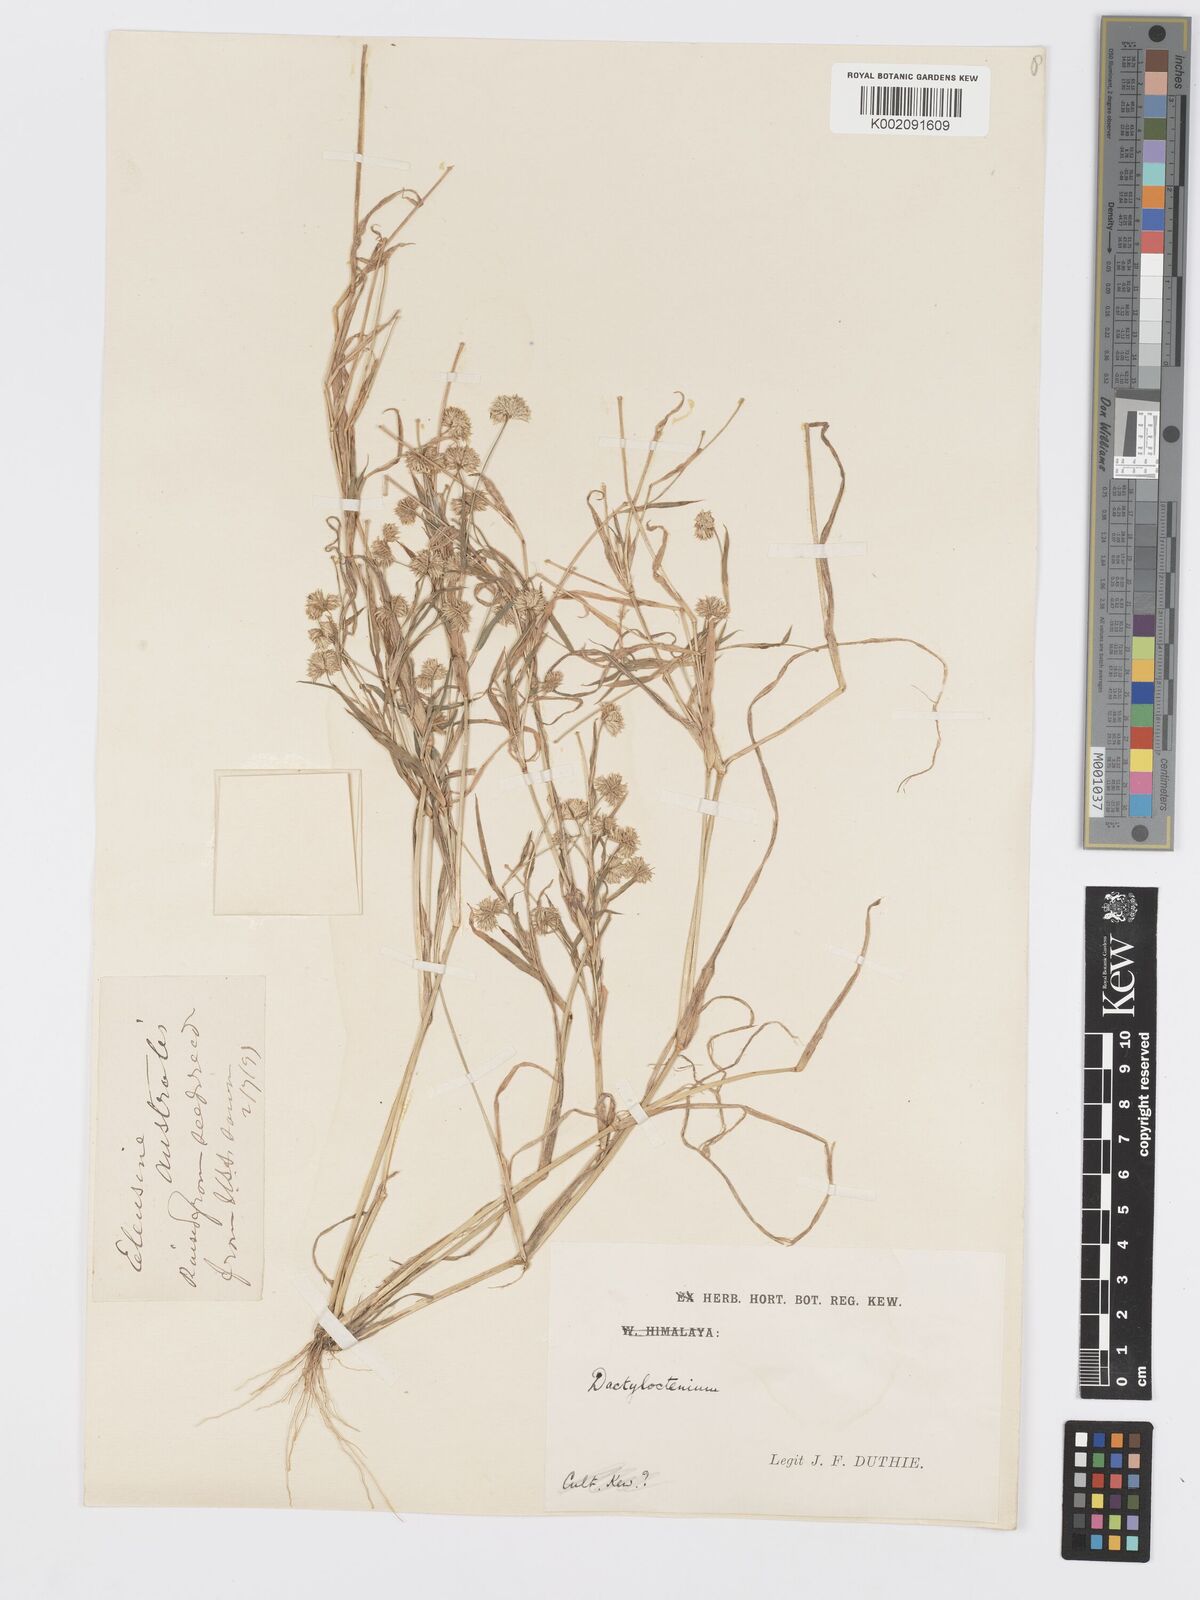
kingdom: Plantae
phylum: Tracheophyta
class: Liliopsida
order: Poales
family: Poaceae
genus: Dactyloctenium
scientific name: Dactyloctenium radulans
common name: Button-grass
